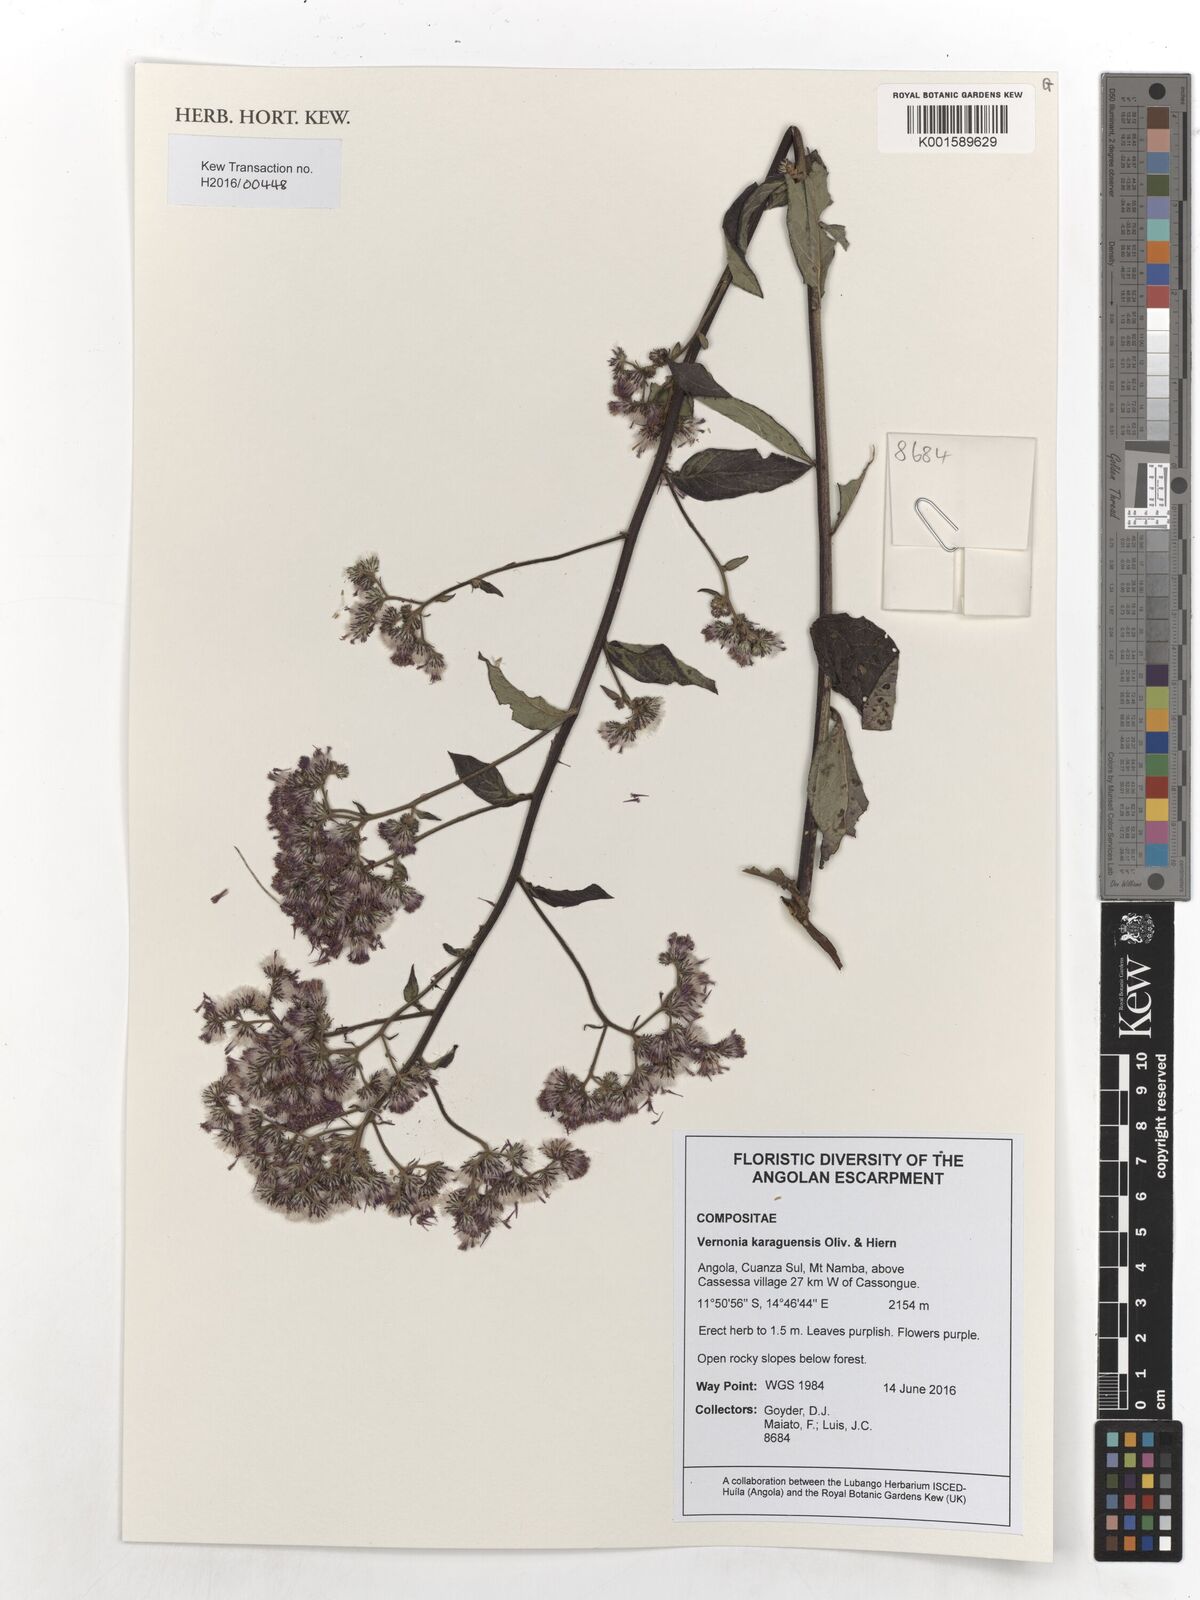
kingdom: Plantae
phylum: Tracheophyta
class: Magnoliopsida
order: Asterales
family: Asteraceae
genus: Orbivestus
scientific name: Orbivestus karaguensis
